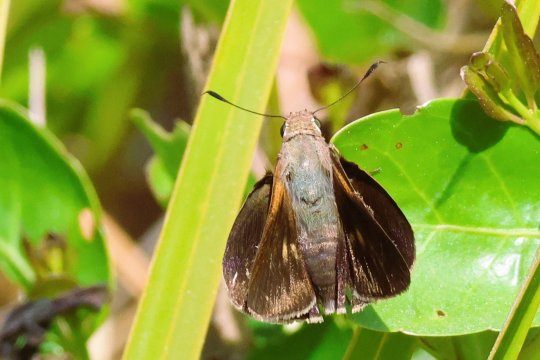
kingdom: Animalia
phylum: Arthropoda
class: Insecta
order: Lepidoptera
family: Hesperiidae
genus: Asbolis
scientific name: Asbolis capucinus
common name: Monk Skipper
